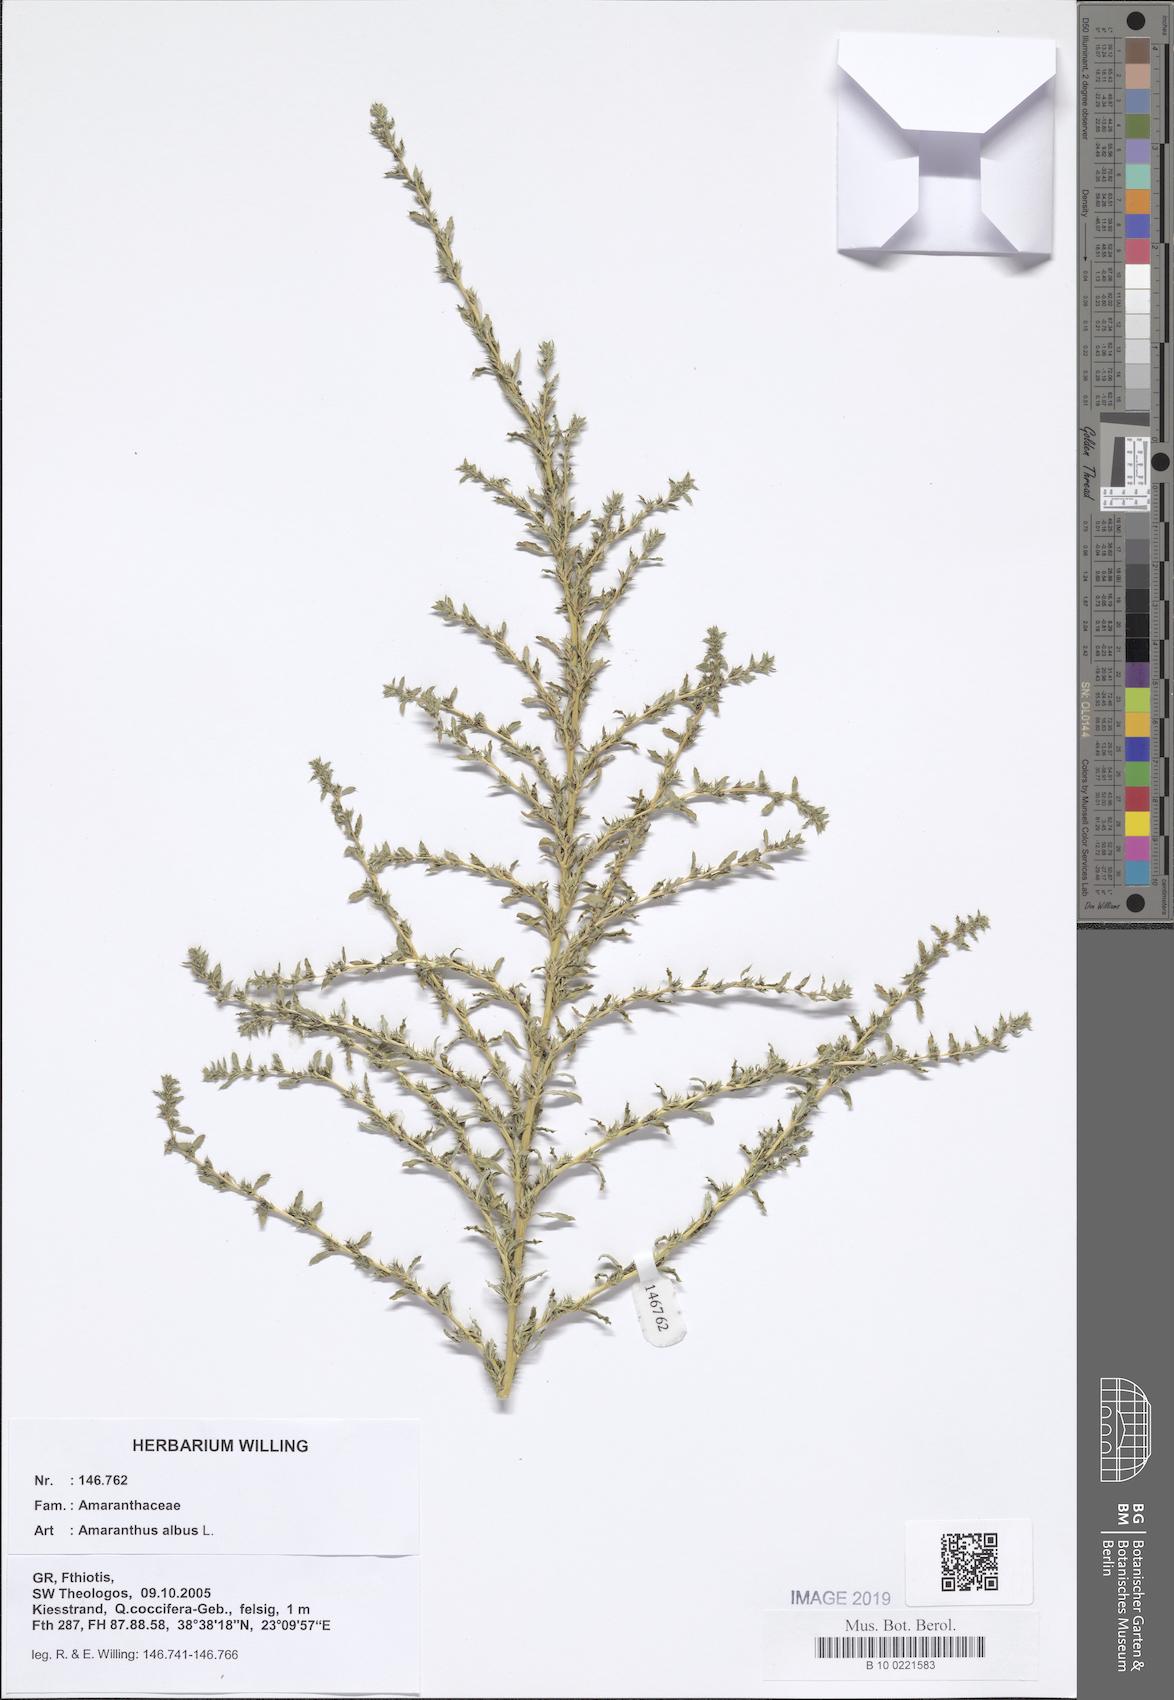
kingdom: Plantae
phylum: Tracheophyta
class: Magnoliopsida
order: Caryophyllales
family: Amaranthaceae
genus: Amaranthus
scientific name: Amaranthus albus
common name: White pigweed
